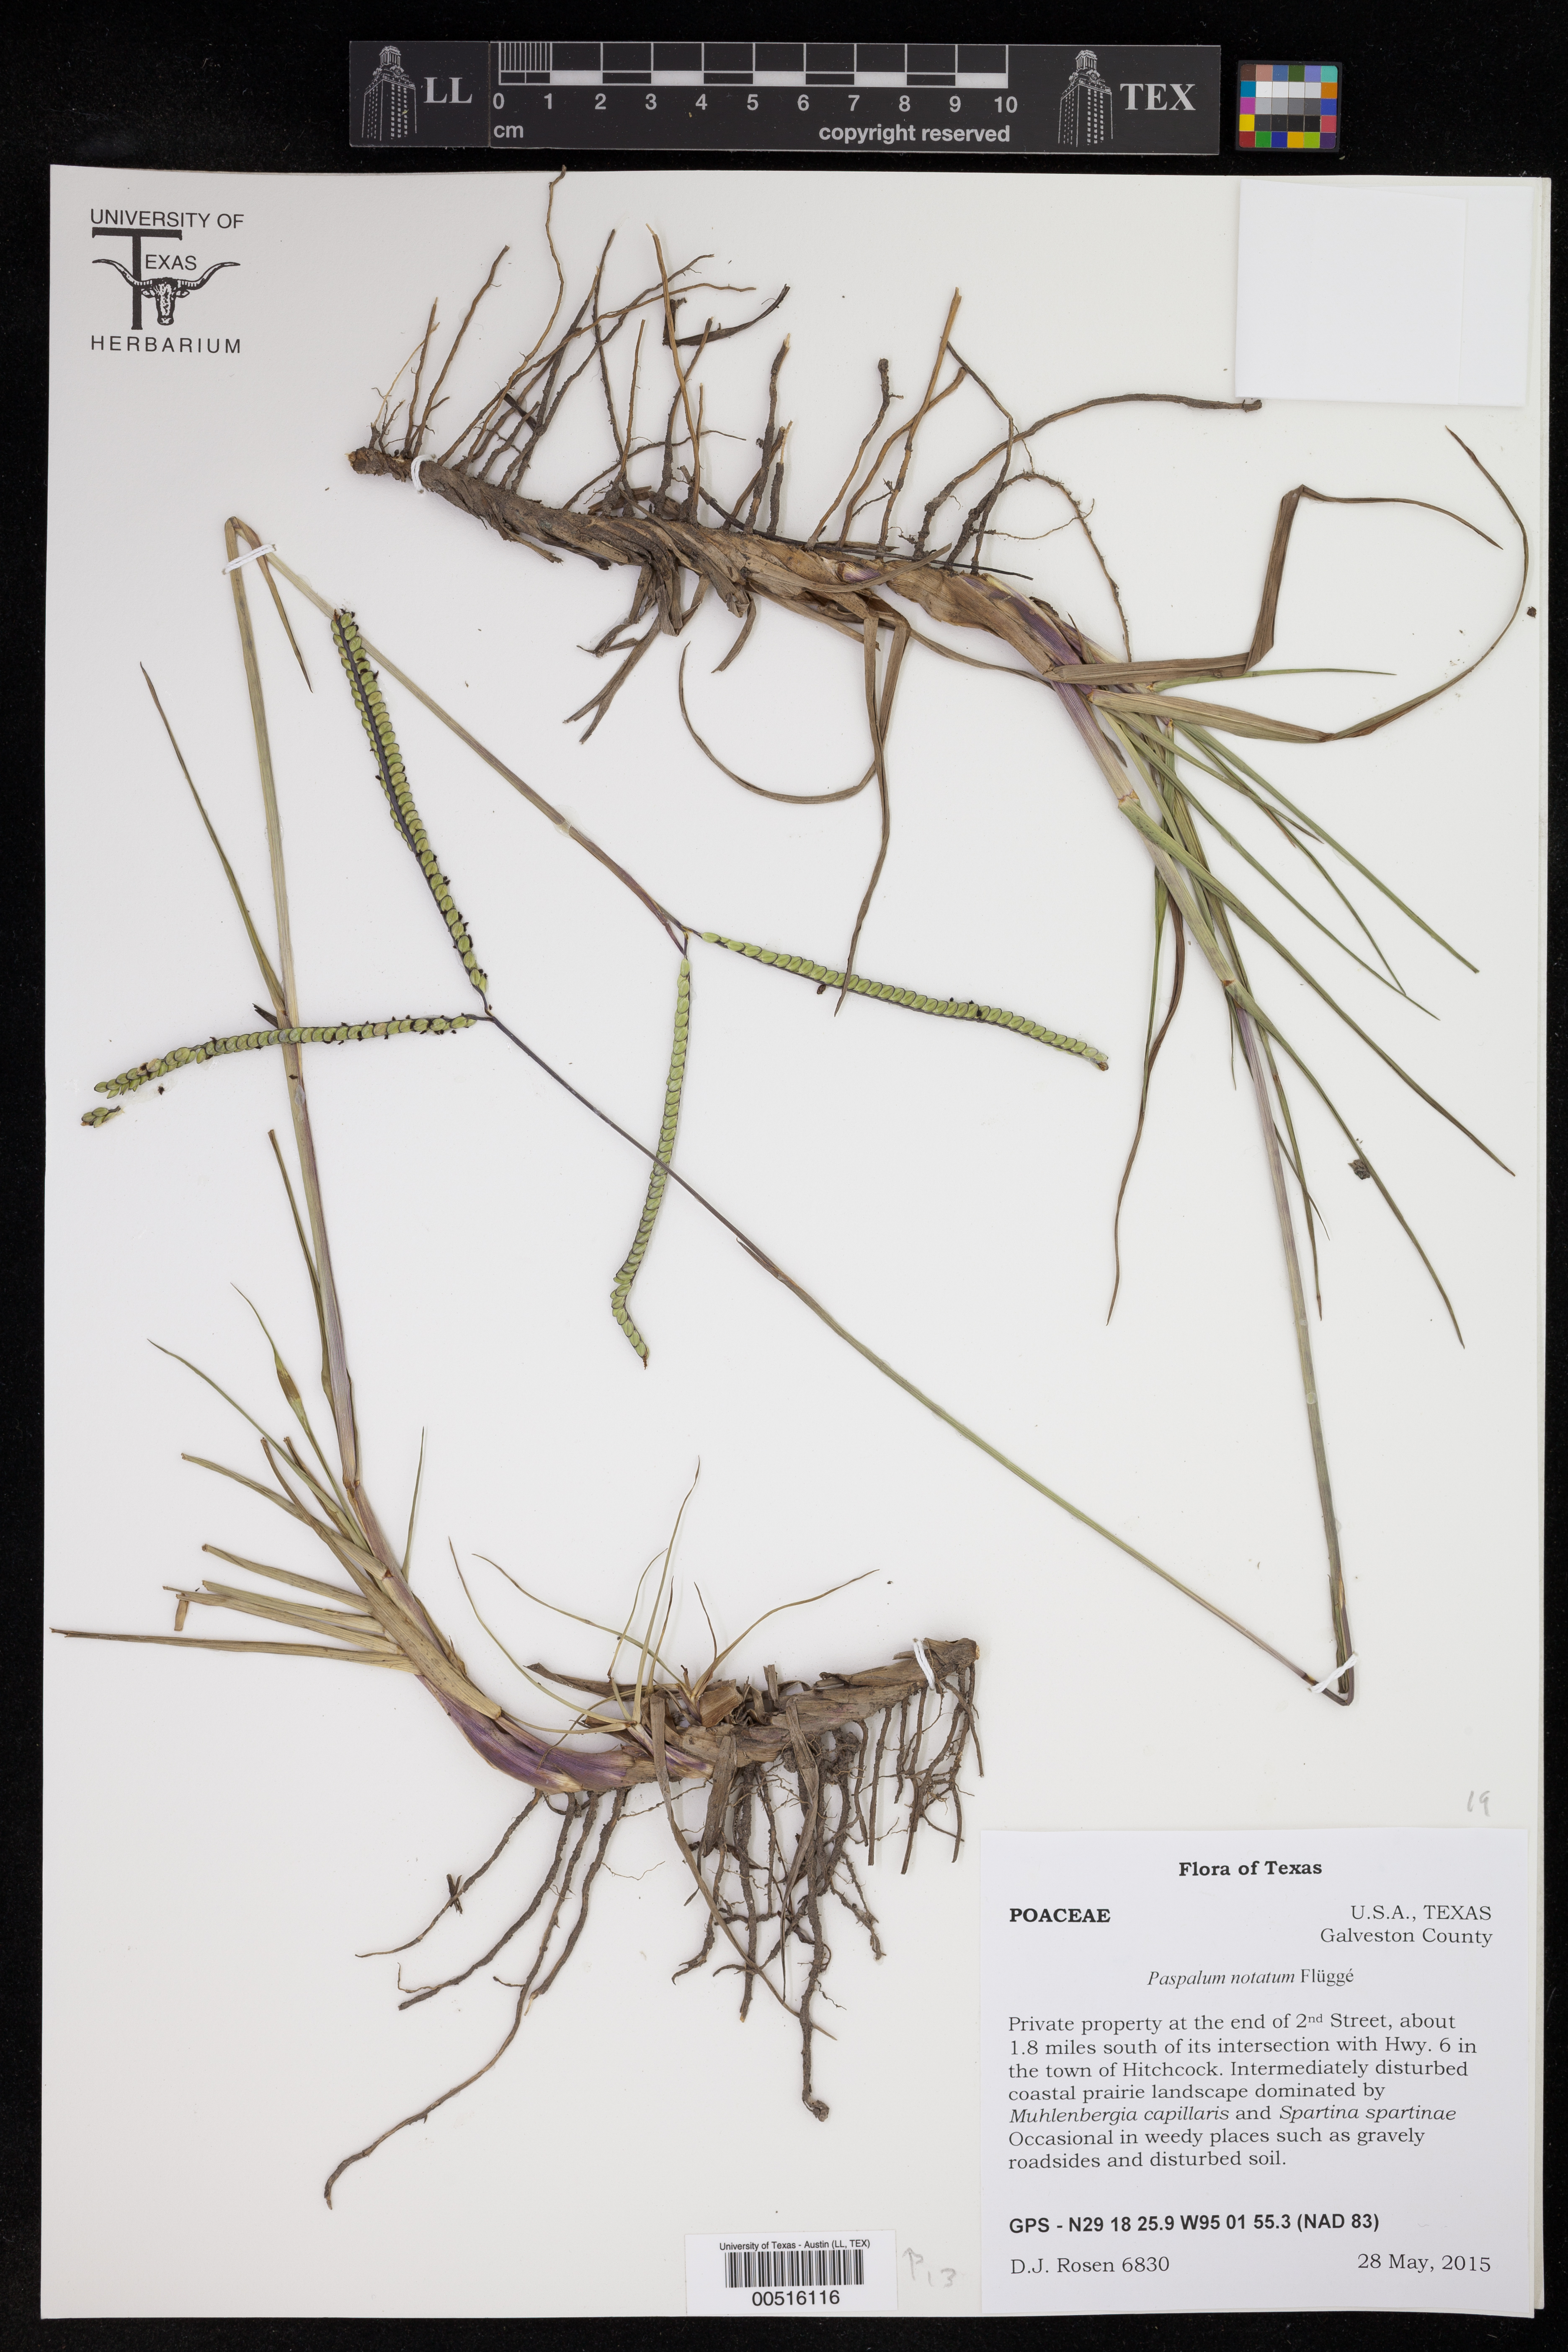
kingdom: Plantae
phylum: Tracheophyta
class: Liliopsida
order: Poales
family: Poaceae
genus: Paspalum
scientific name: Paspalum notatum
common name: Bahiagrass
